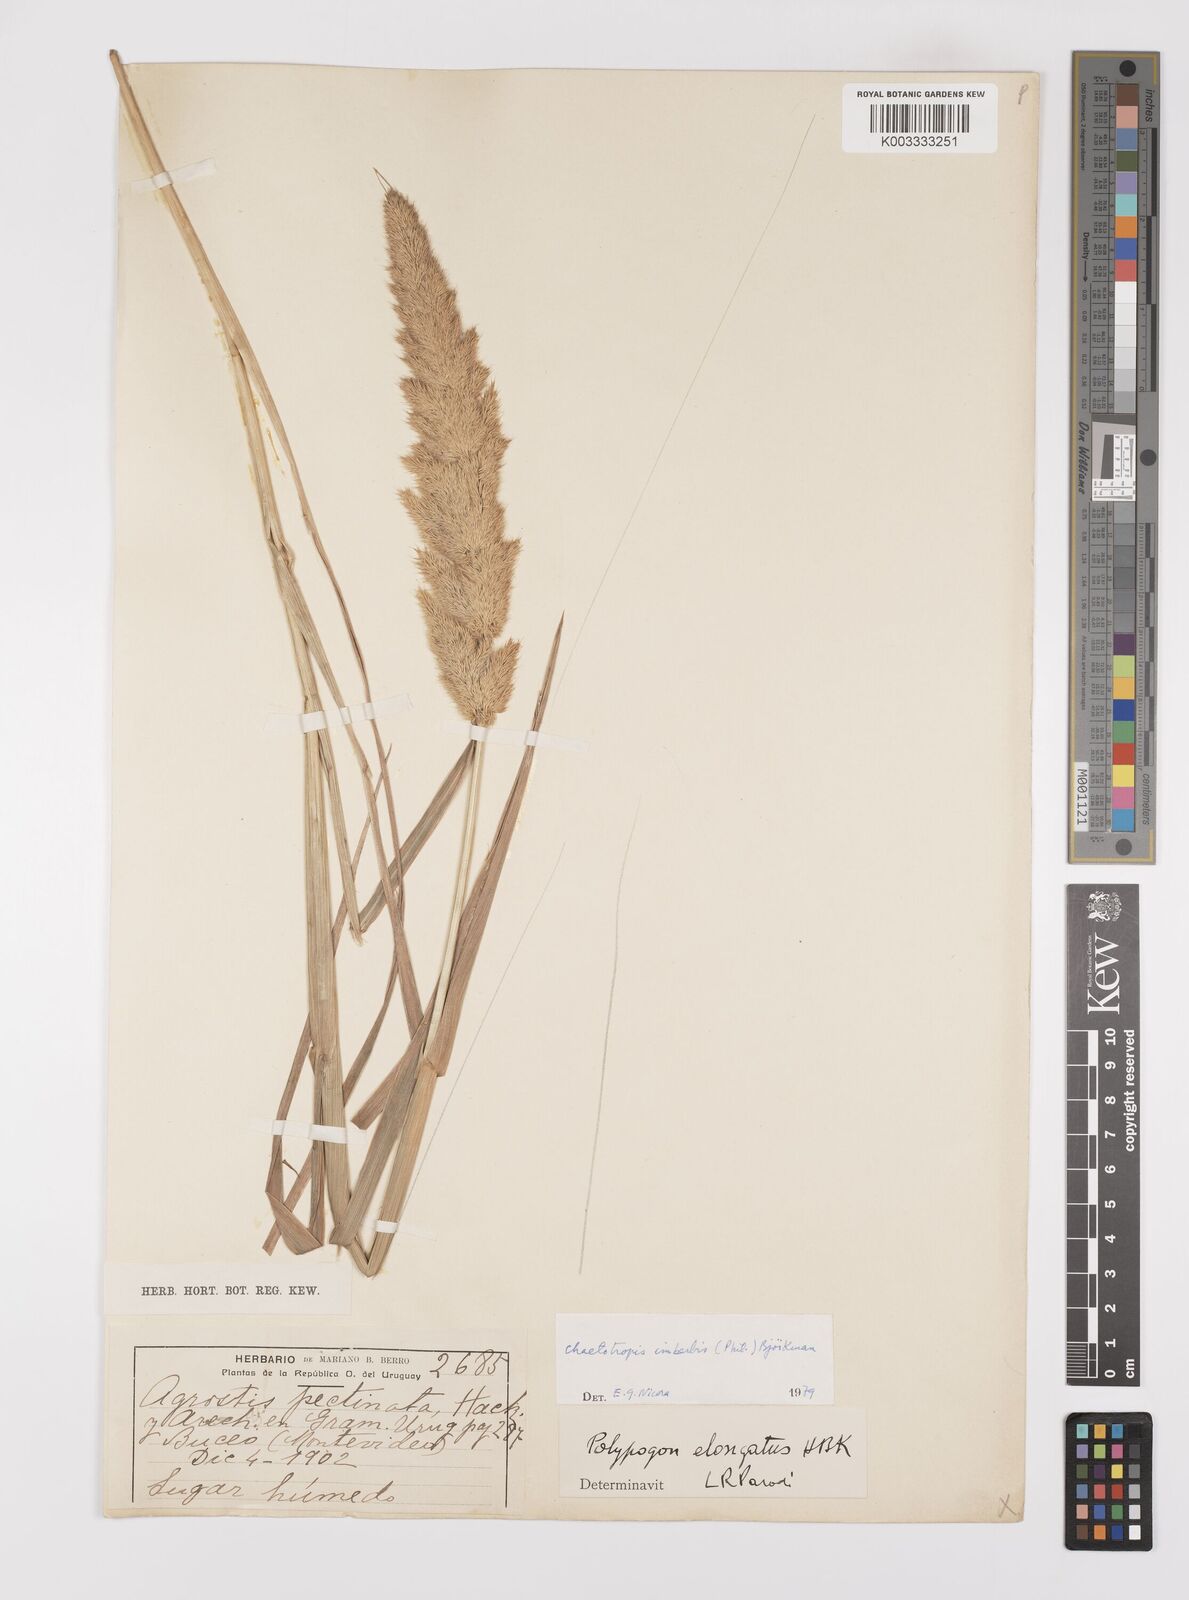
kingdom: Plantae
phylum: Tracheophyta
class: Liliopsida
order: Poales
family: Poaceae
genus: Polypogon
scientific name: Polypogon imberbis
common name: Beardless rabbitsfoot grass
